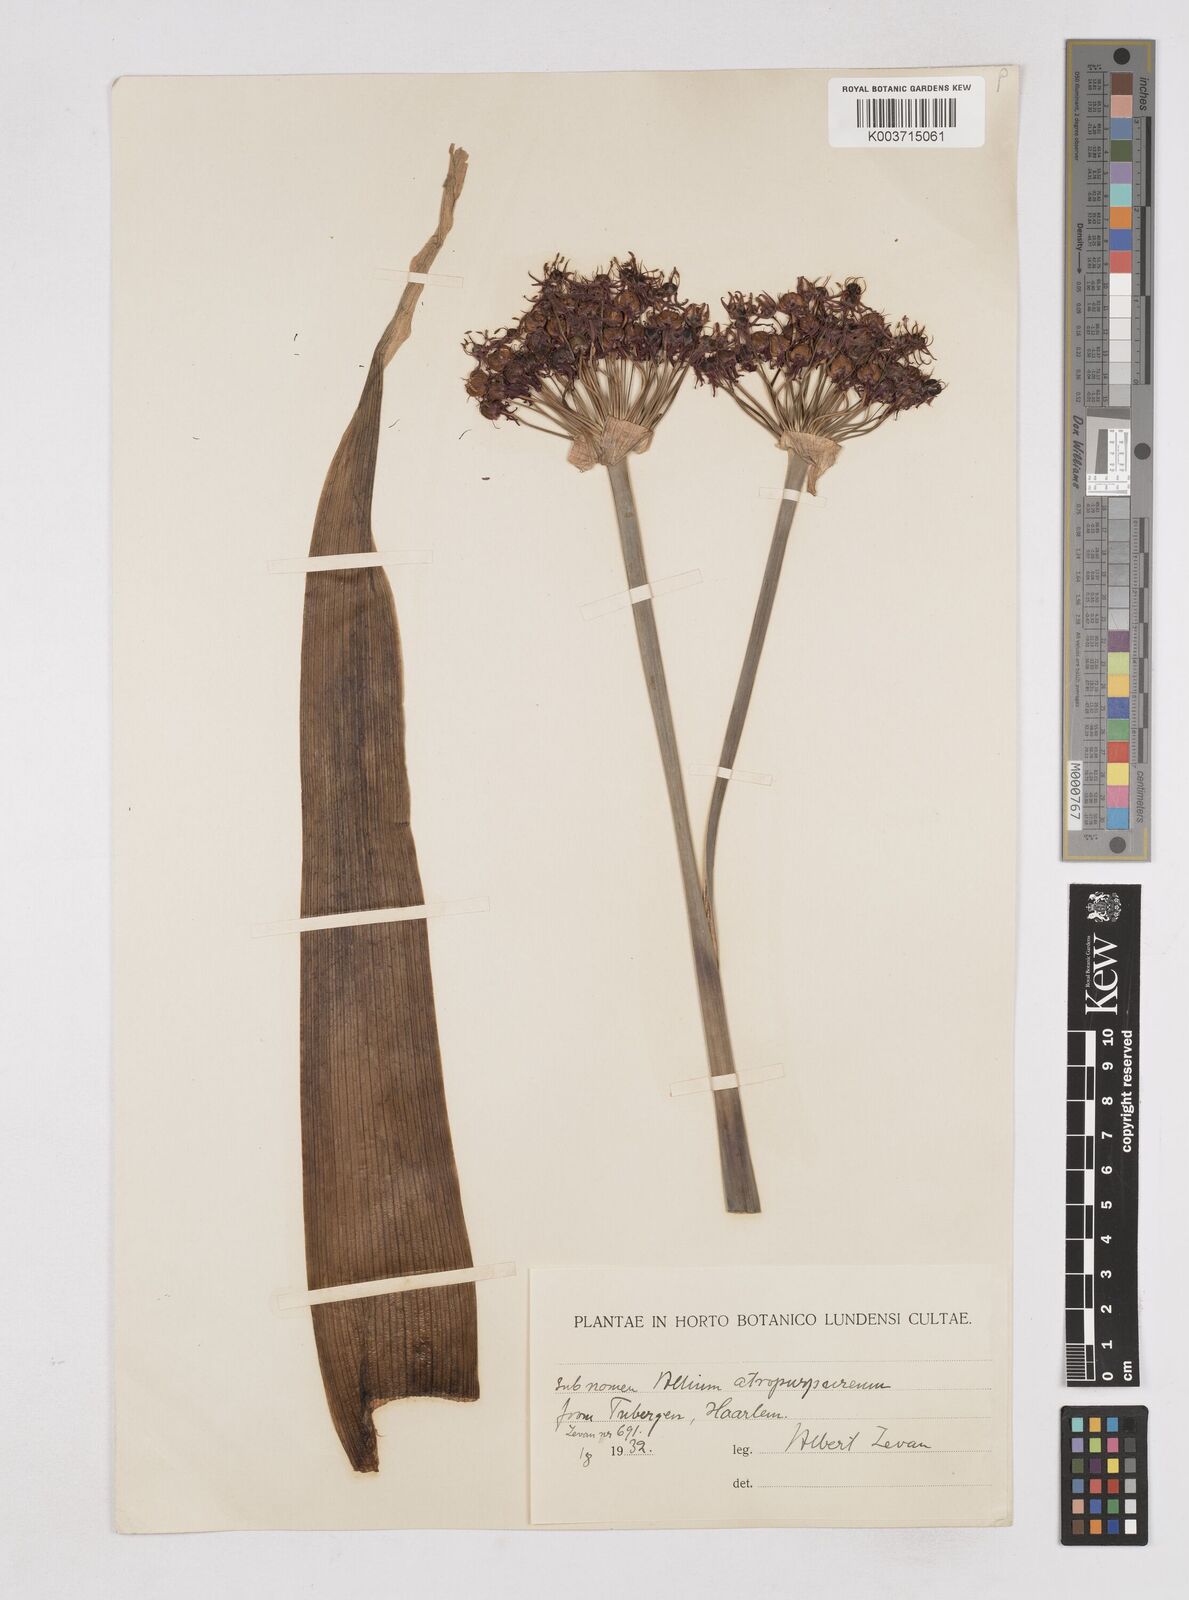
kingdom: Plantae
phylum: Tracheophyta
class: Liliopsida
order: Asparagales
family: Amaryllidaceae
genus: Allium
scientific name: Allium atropurpureum
